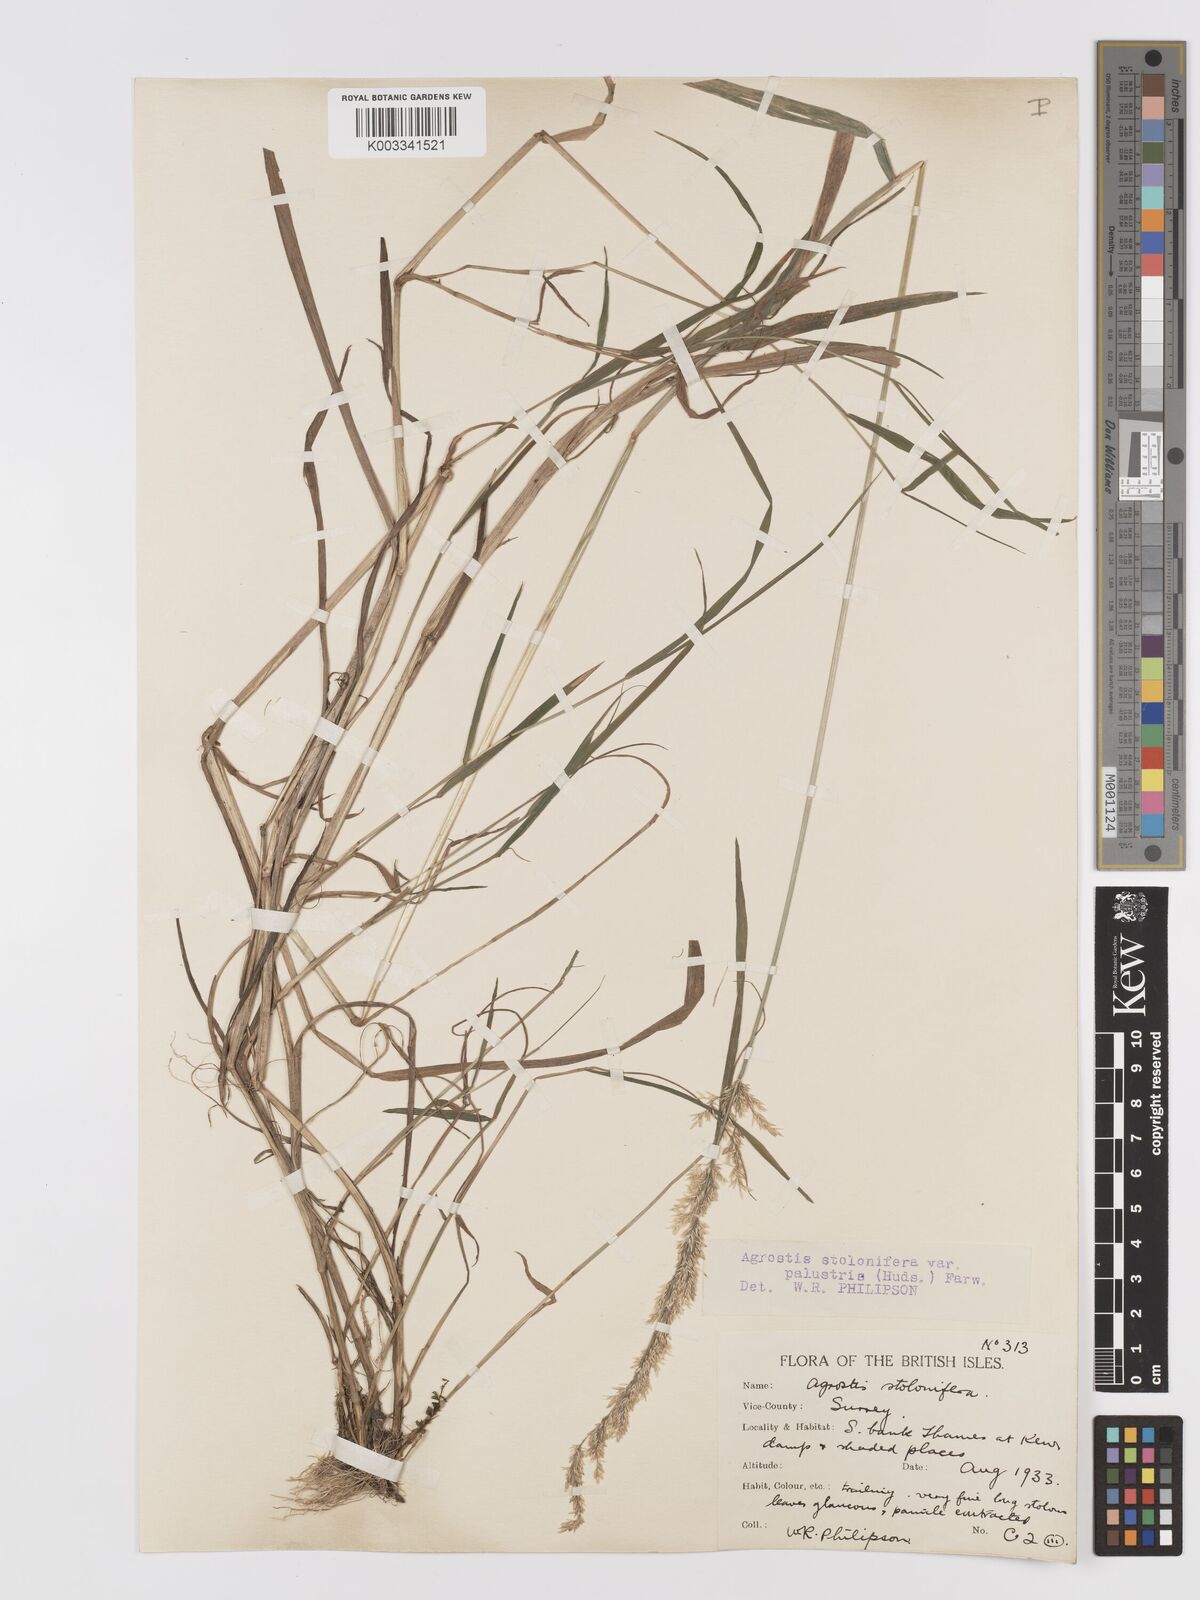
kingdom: Plantae
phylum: Tracheophyta
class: Liliopsida
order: Poales
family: Poaceae
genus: Agrostis
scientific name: Agrostis stolonifera
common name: Creeping bentgrass
